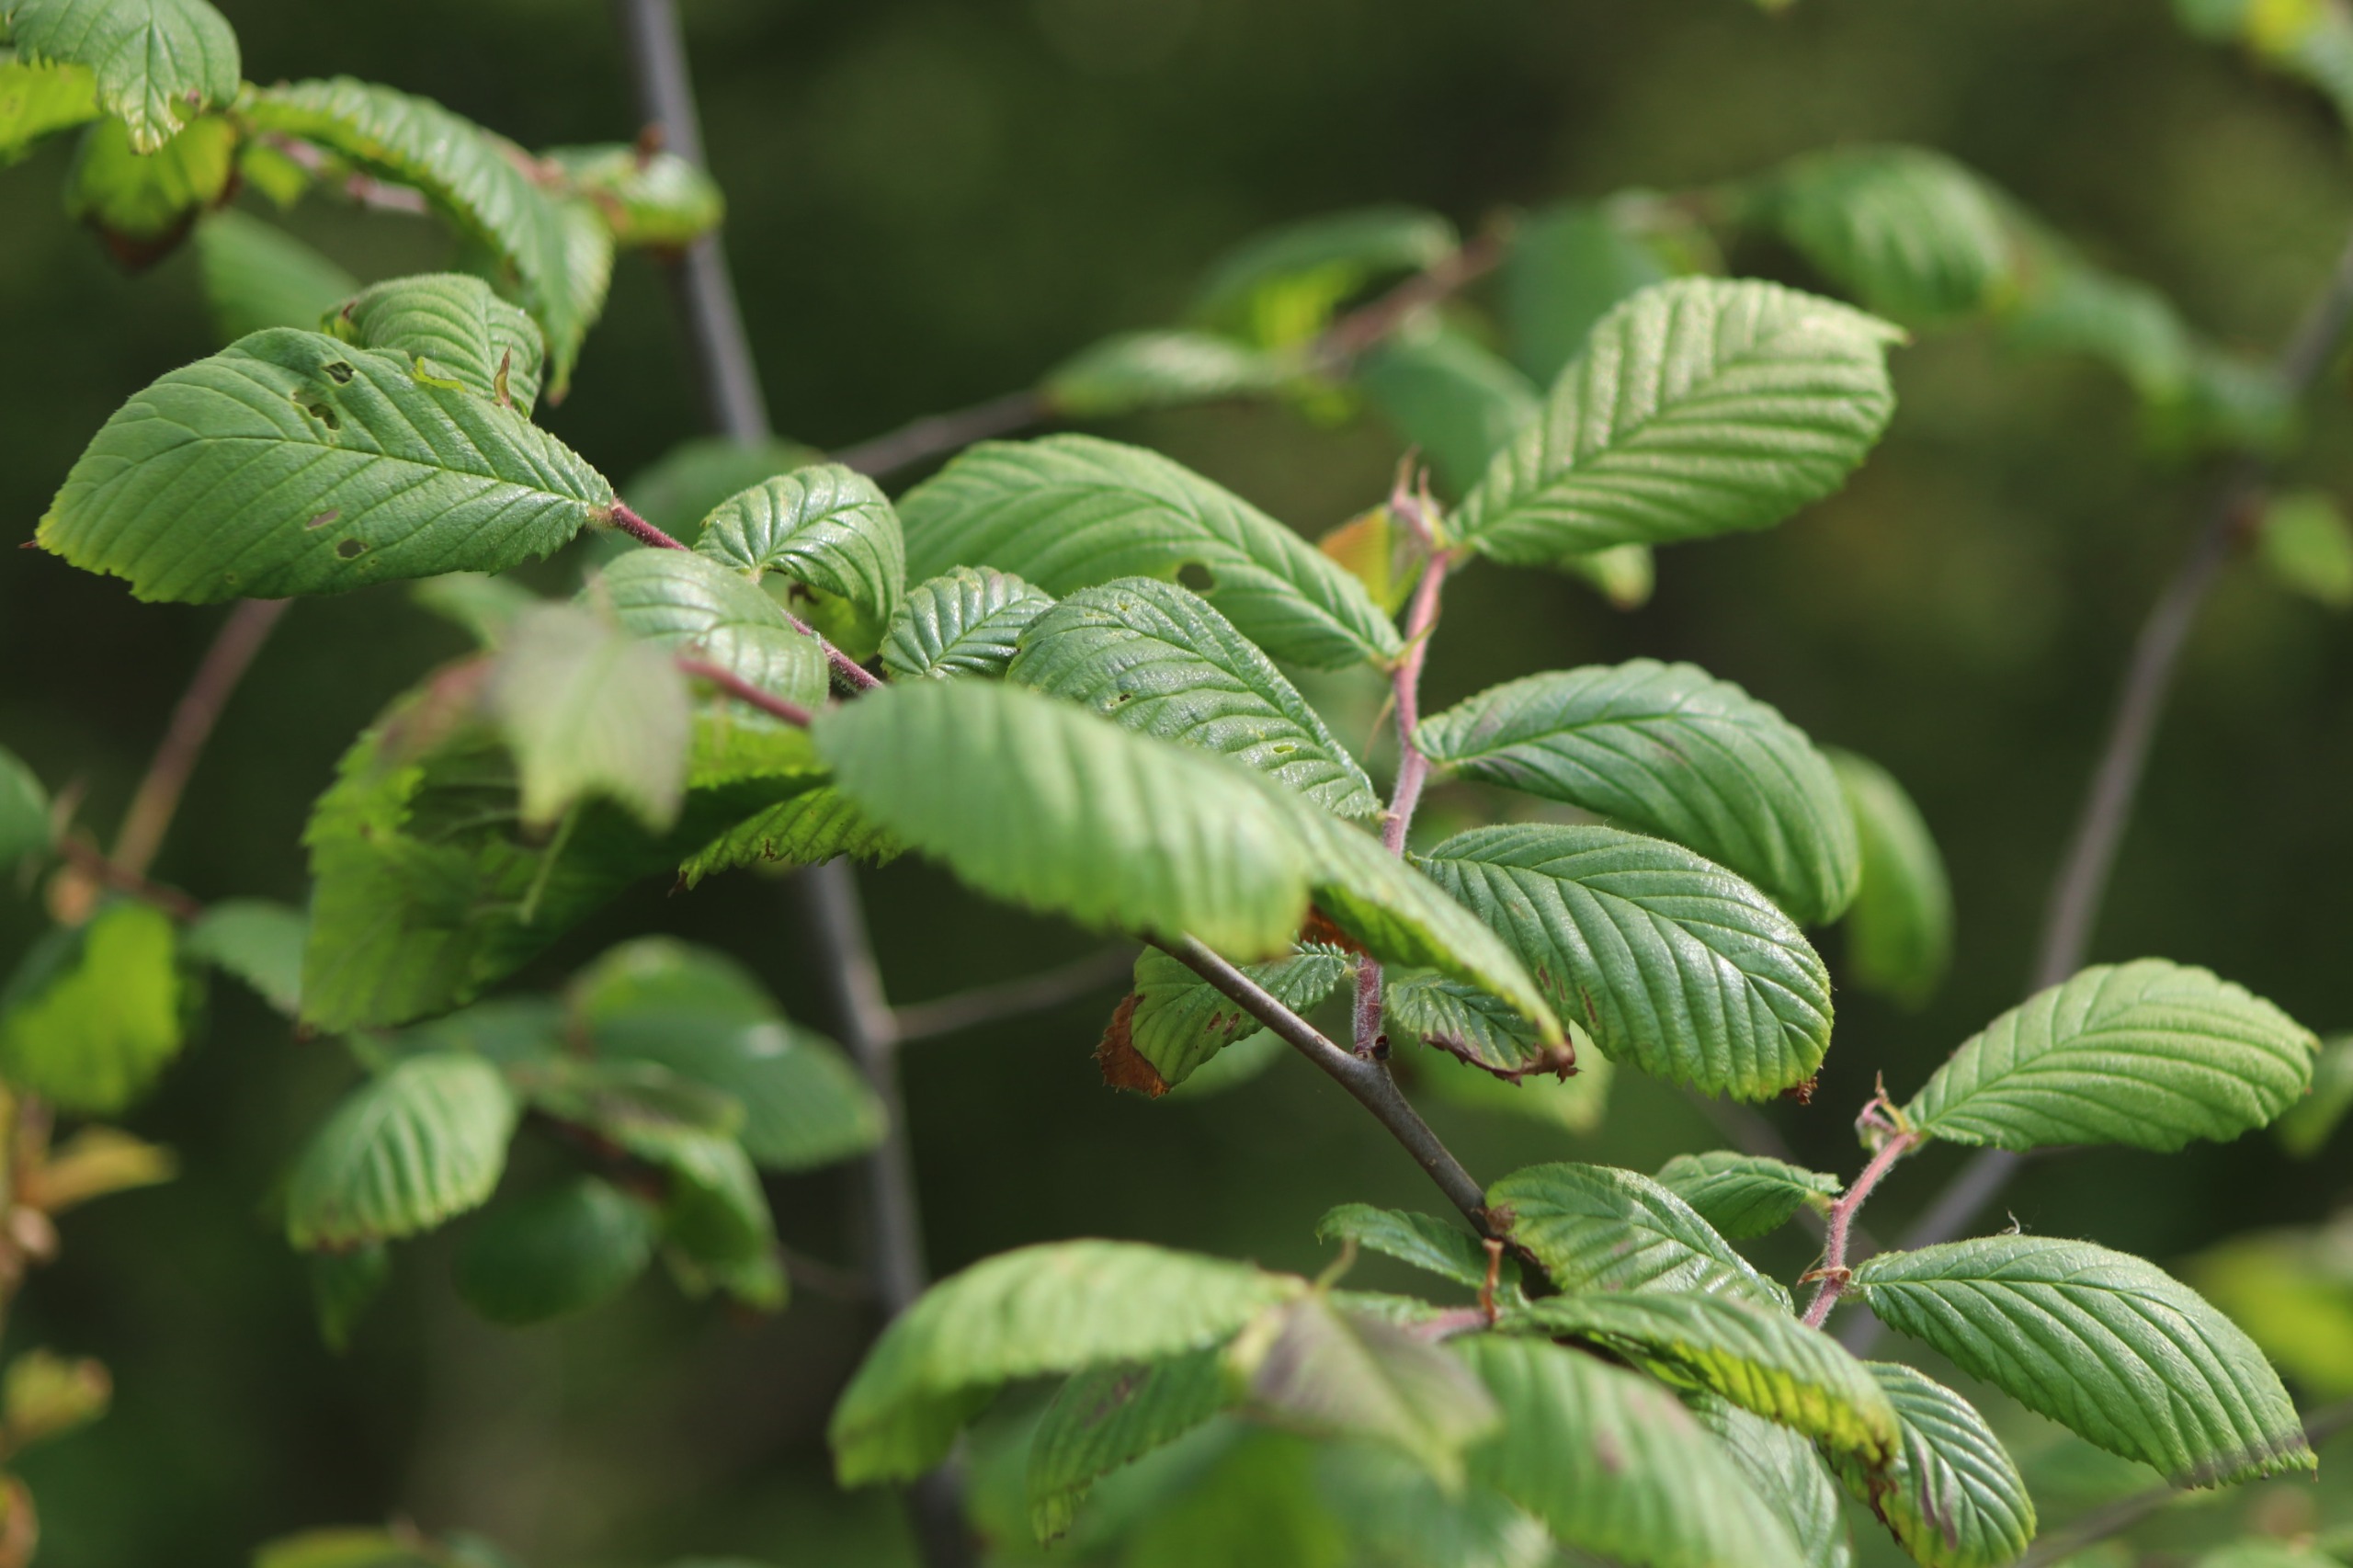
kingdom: Plantae
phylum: Tracheophyta
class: Magnoliopsida
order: Rosales
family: Ulmaceae
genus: Ulmus
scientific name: Ulmus glabra
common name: Skov-elm/storbladet elm
